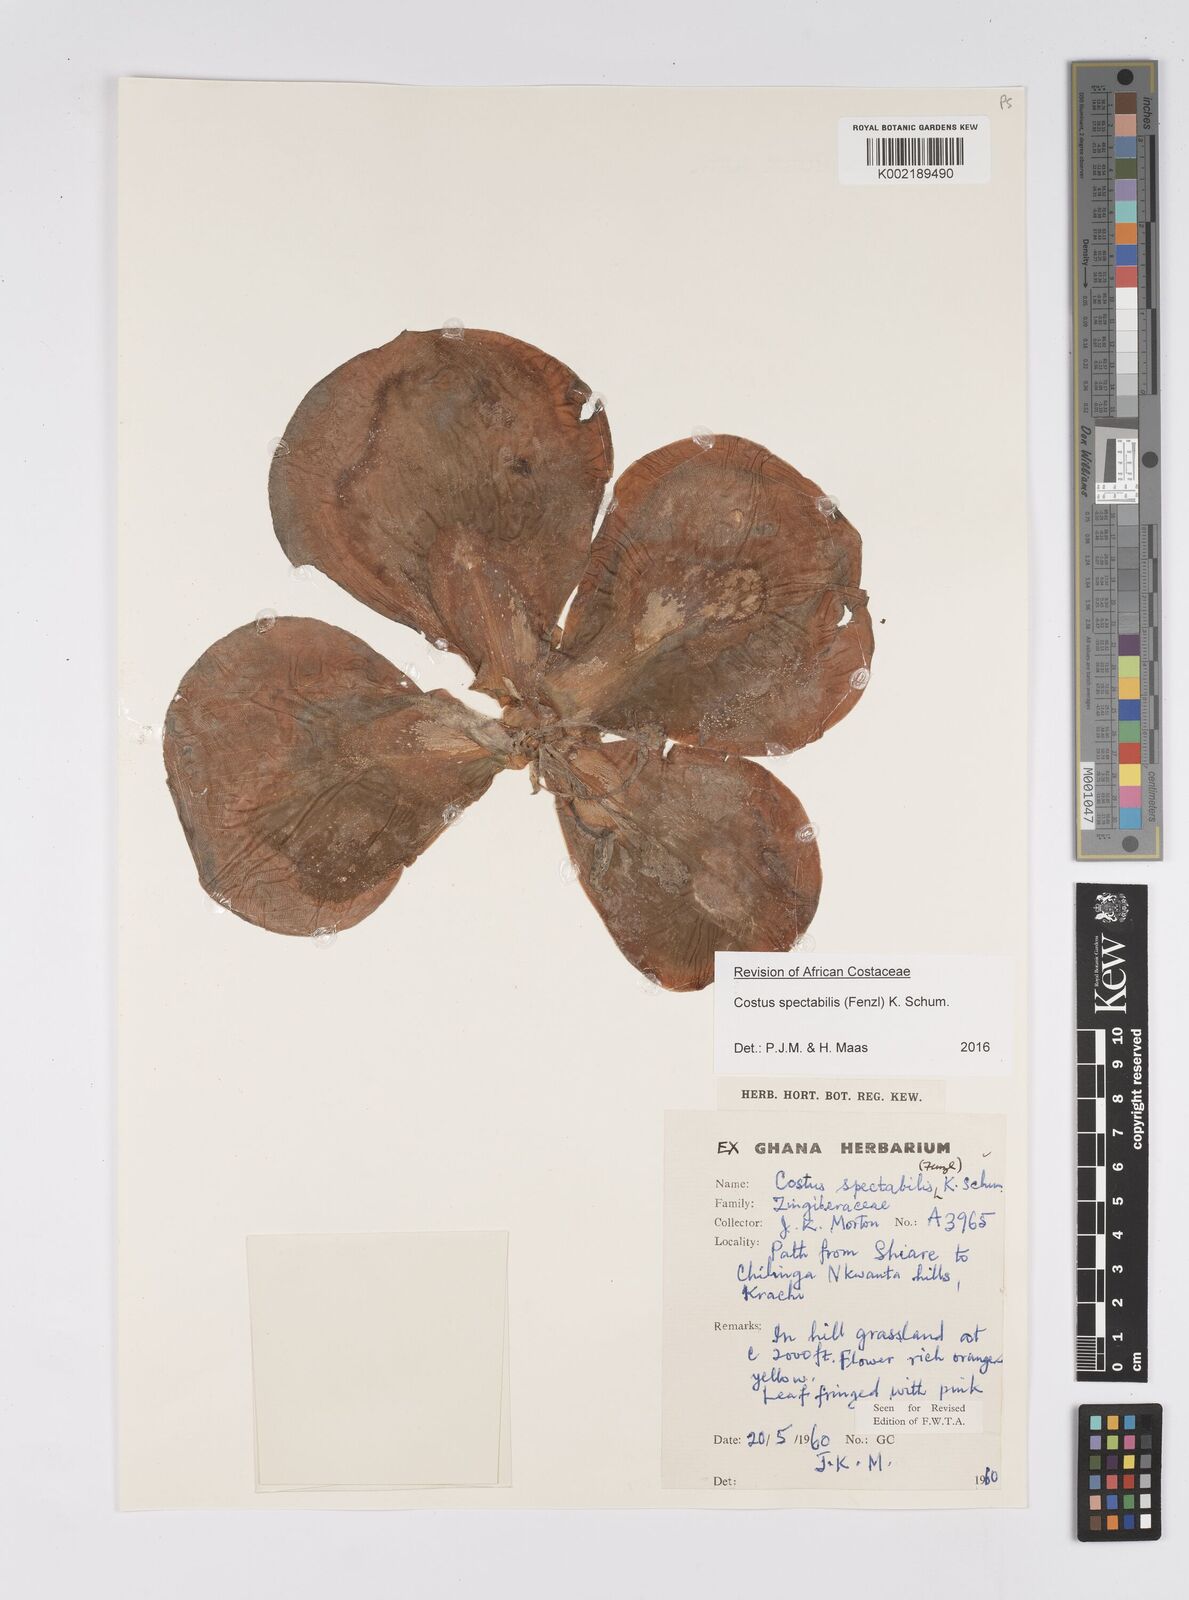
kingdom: Plantae
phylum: Tracheophyta
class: Liliopsida
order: Zingiberales
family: Costaceae
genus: Costus
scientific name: Costus spectabilis
